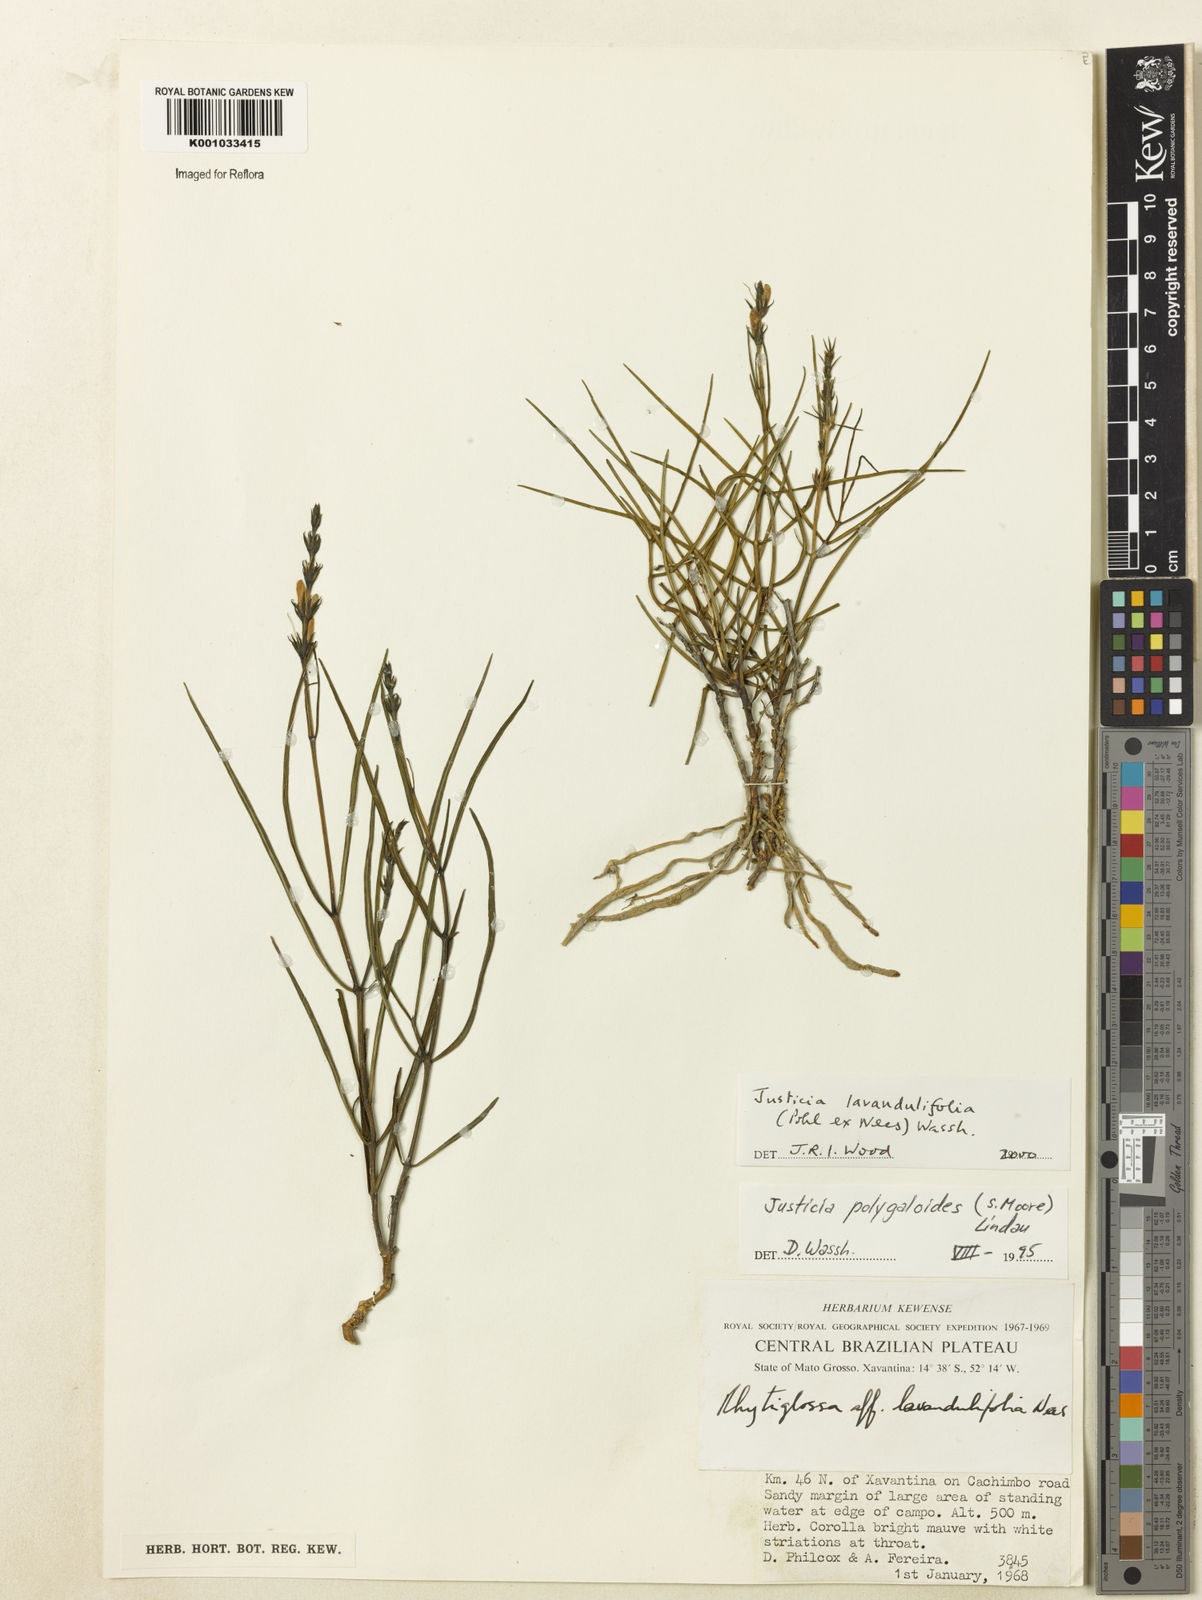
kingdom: Plantae
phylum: Tracheophyta
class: Magnoliopsida
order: Lamiales
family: Acanthaceae
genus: Justicia
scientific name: Justicia lavandulifolia
